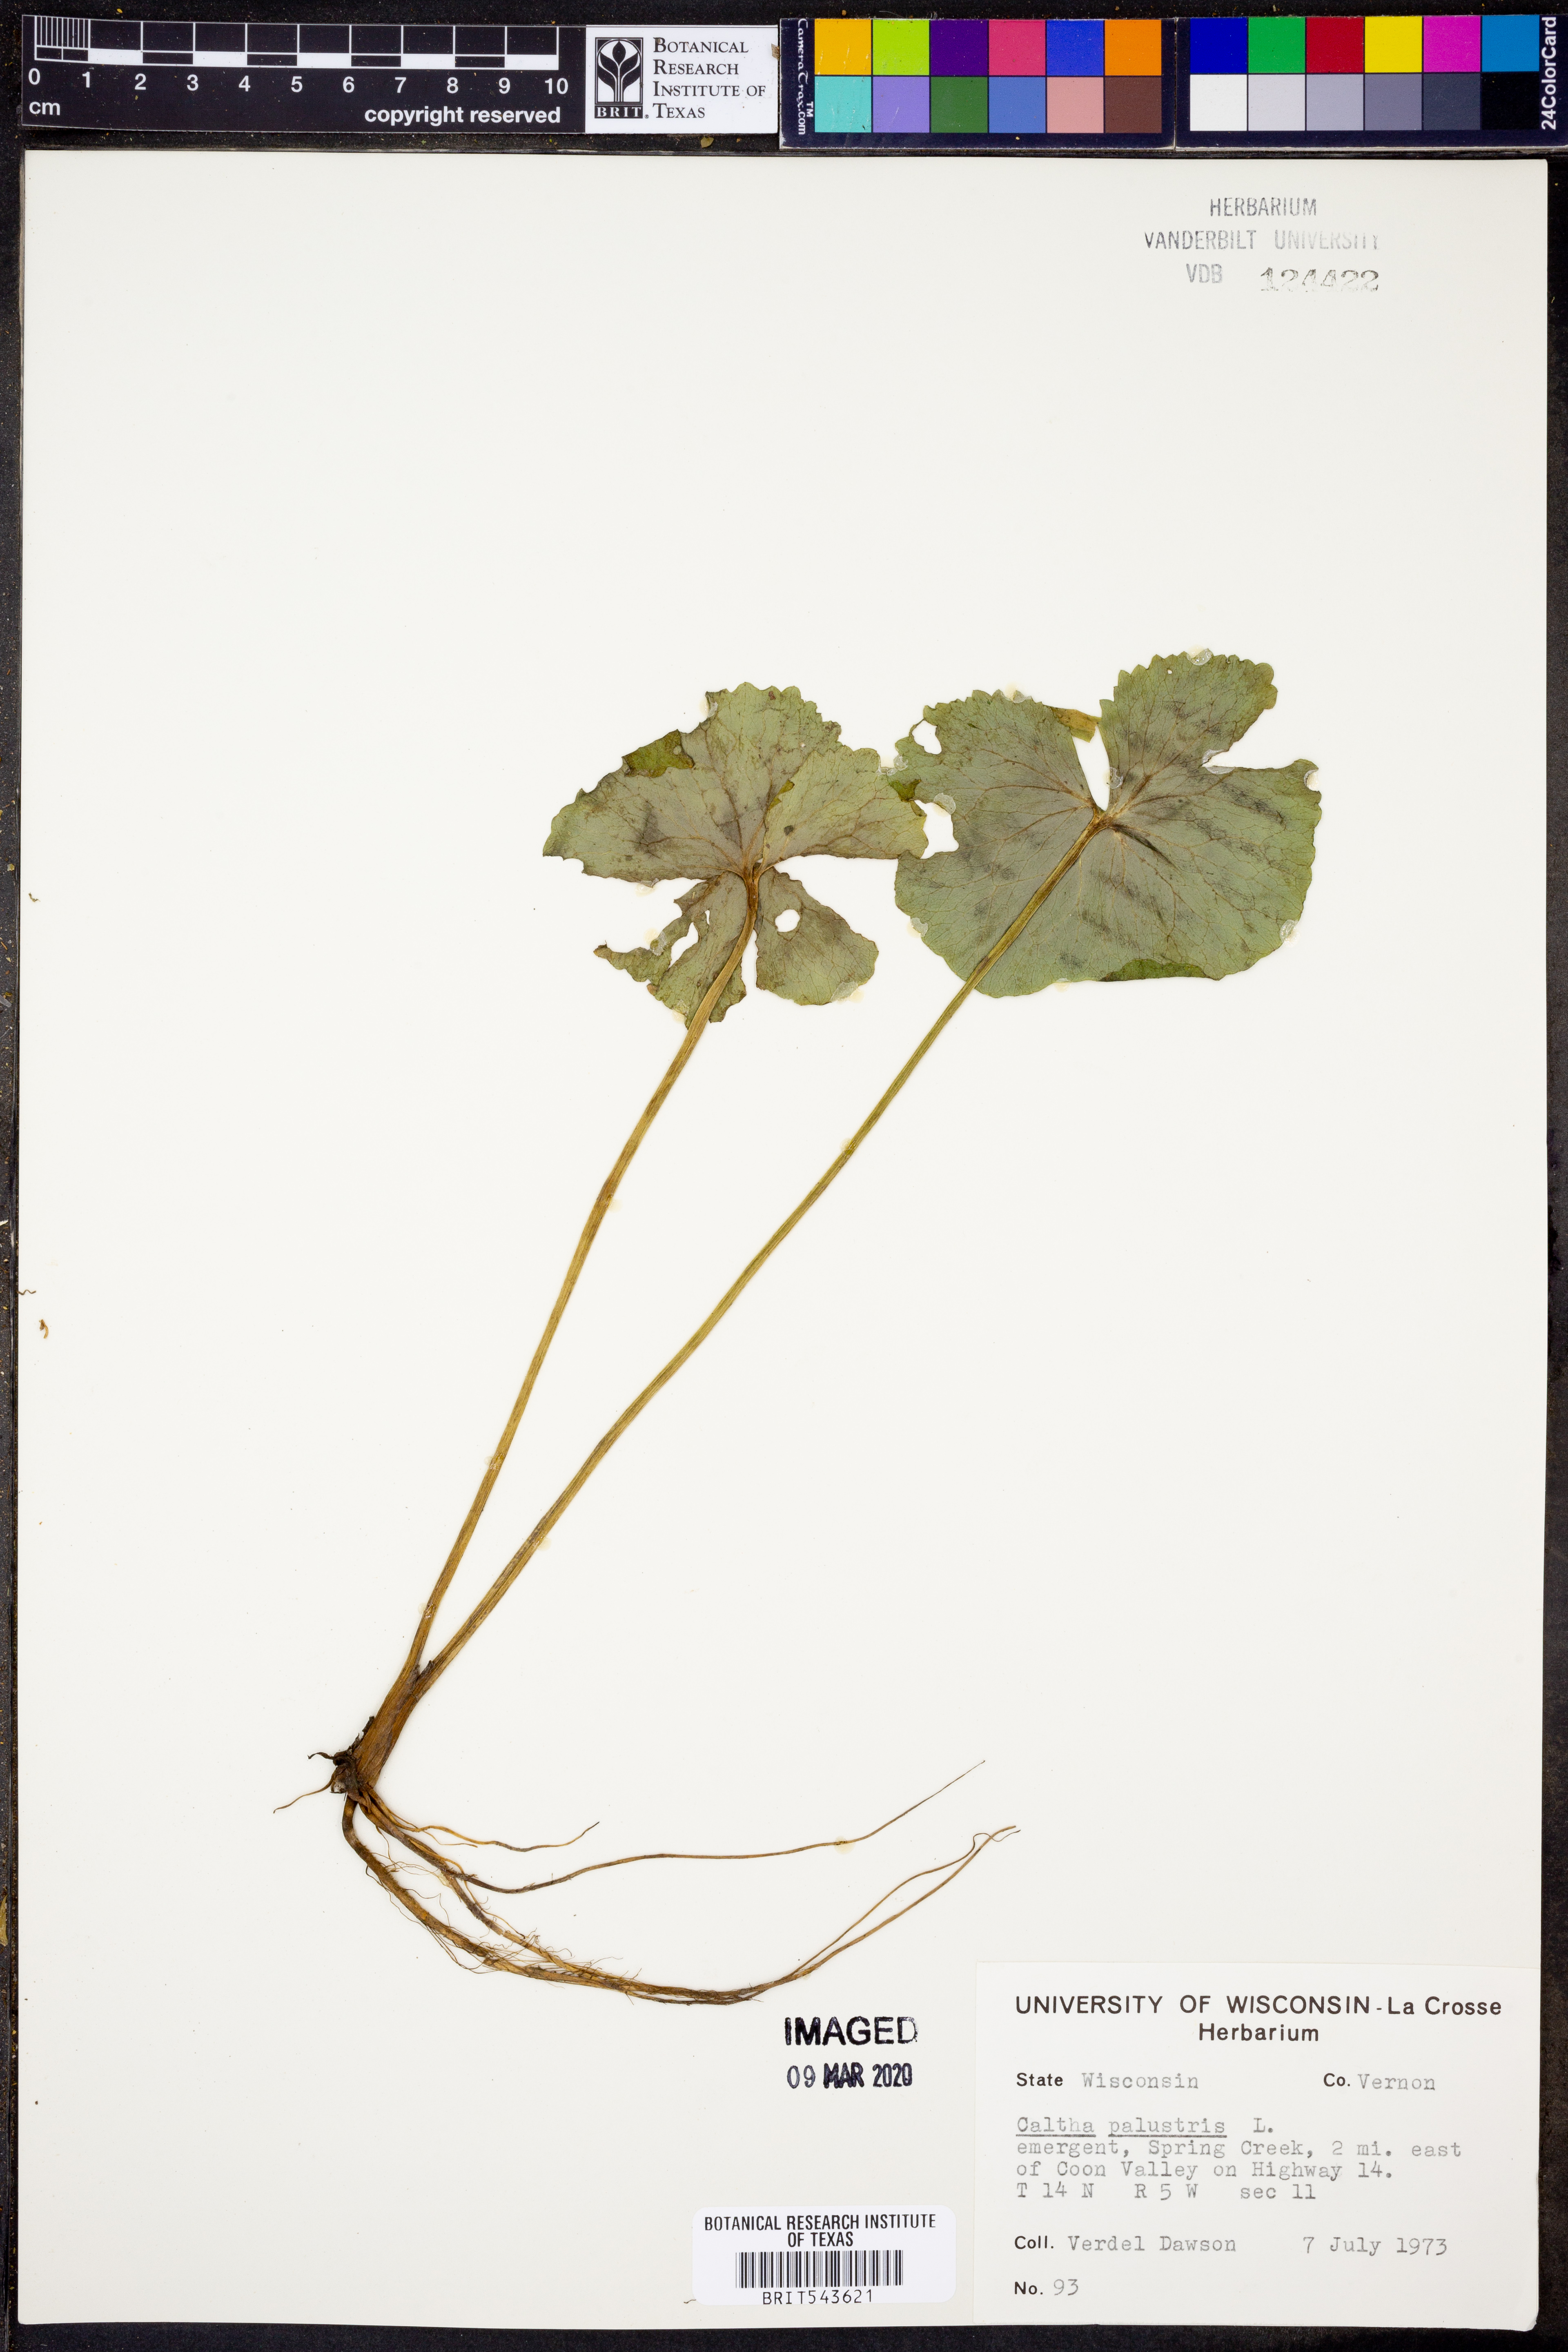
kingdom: Plantae
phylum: Tracheophyta
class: Magnoliopsida
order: Ranunculales
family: Ranunculaceae
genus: Caltha
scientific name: Caltha palustris
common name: Marsh marigold
